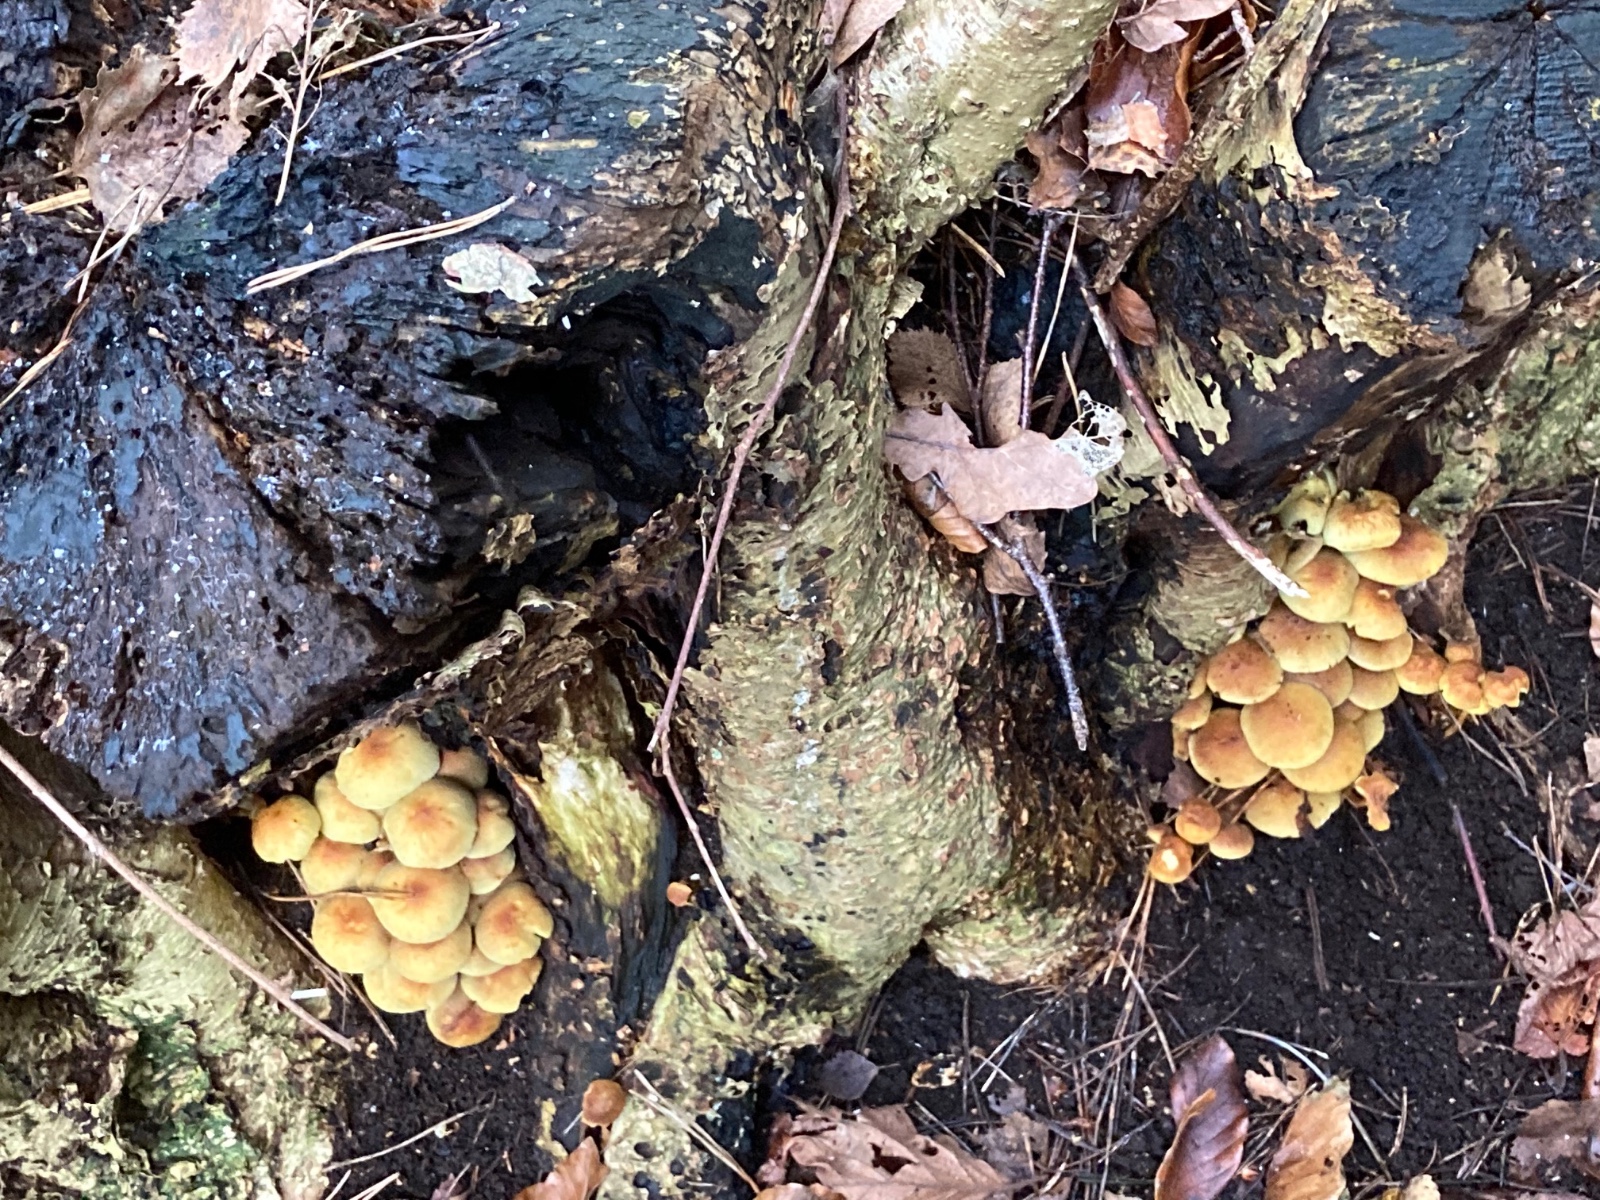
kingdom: Fungi
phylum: Basidiomycota
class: Agaricomycetes
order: Agaricales
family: Strophariaceae
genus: Hypholoma
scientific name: Hypholoma fasciculare
